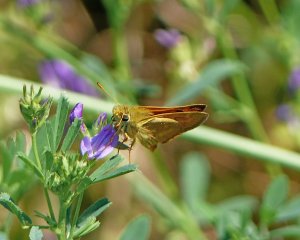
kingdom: Animalia
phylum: Arthropoda
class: Insecta
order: Lepidoptera
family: Hesperiidae
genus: Ochlodes
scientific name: Ochlodes sylvanoides
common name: Woodland Skipper
